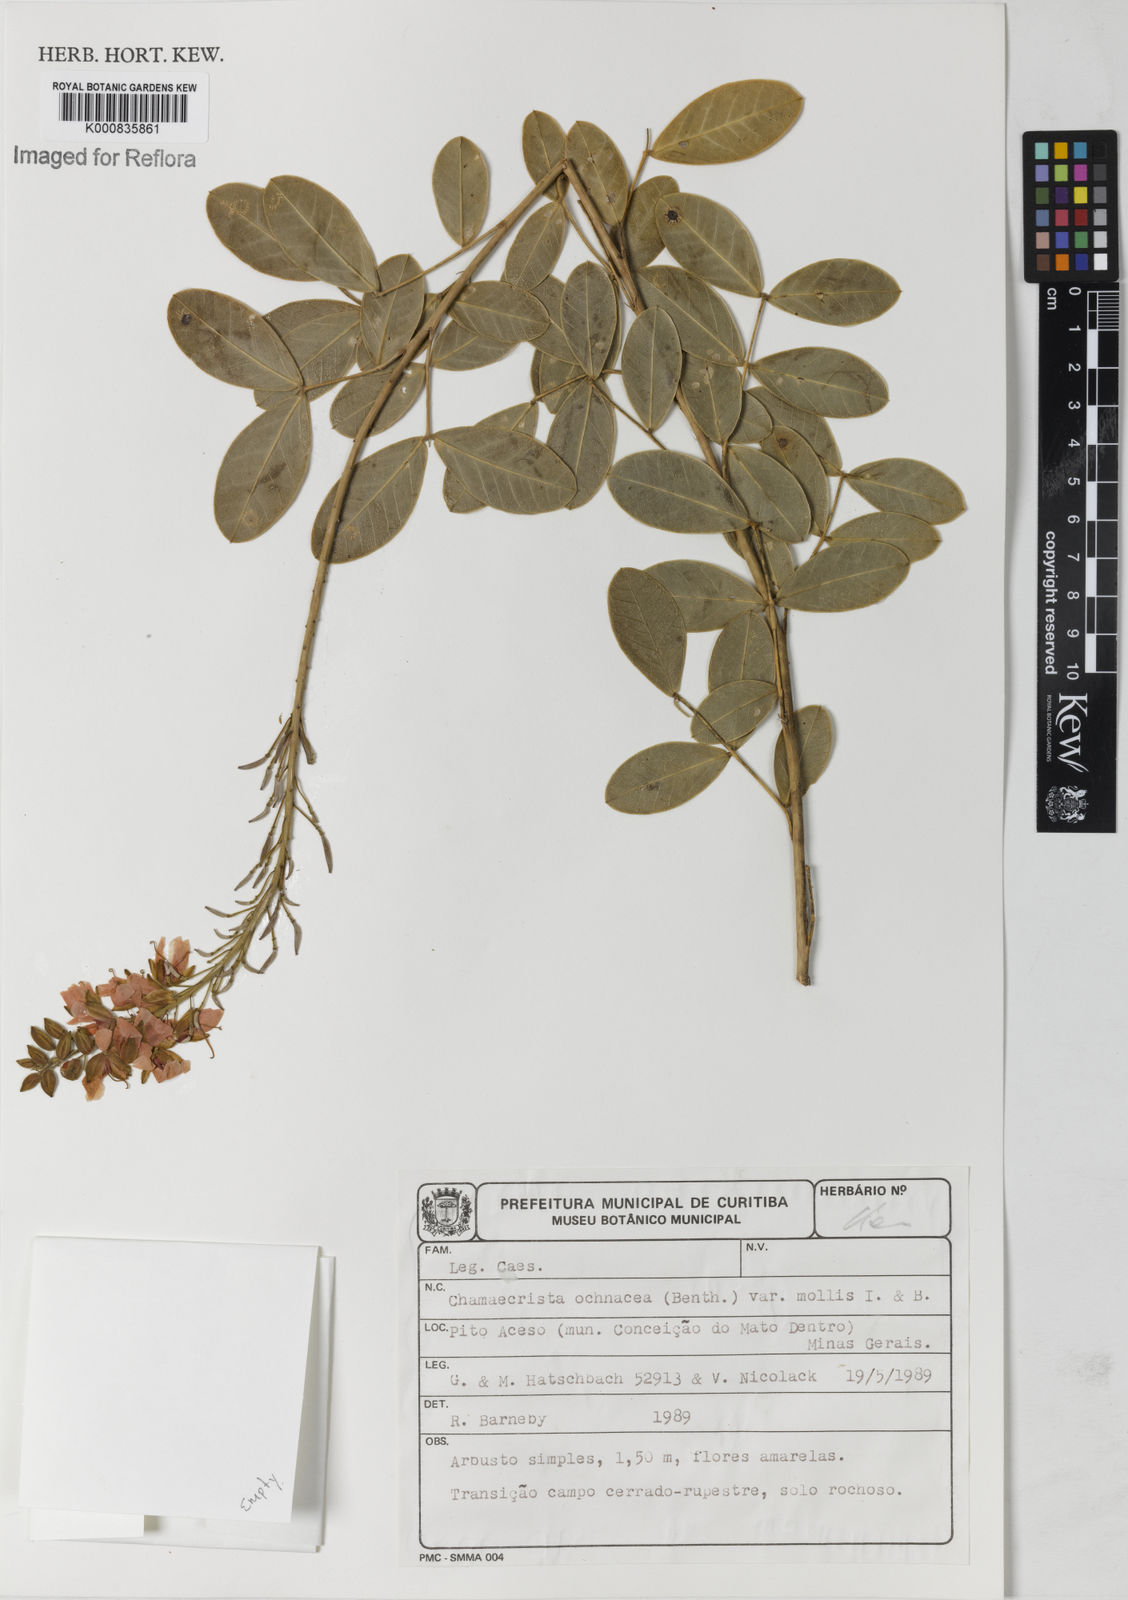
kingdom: Plantae
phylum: Tracheophyta
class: Magnoliopsida
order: Fabales
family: Fabaceae
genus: Chamaecrista
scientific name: Chamaecrista ochnacea
